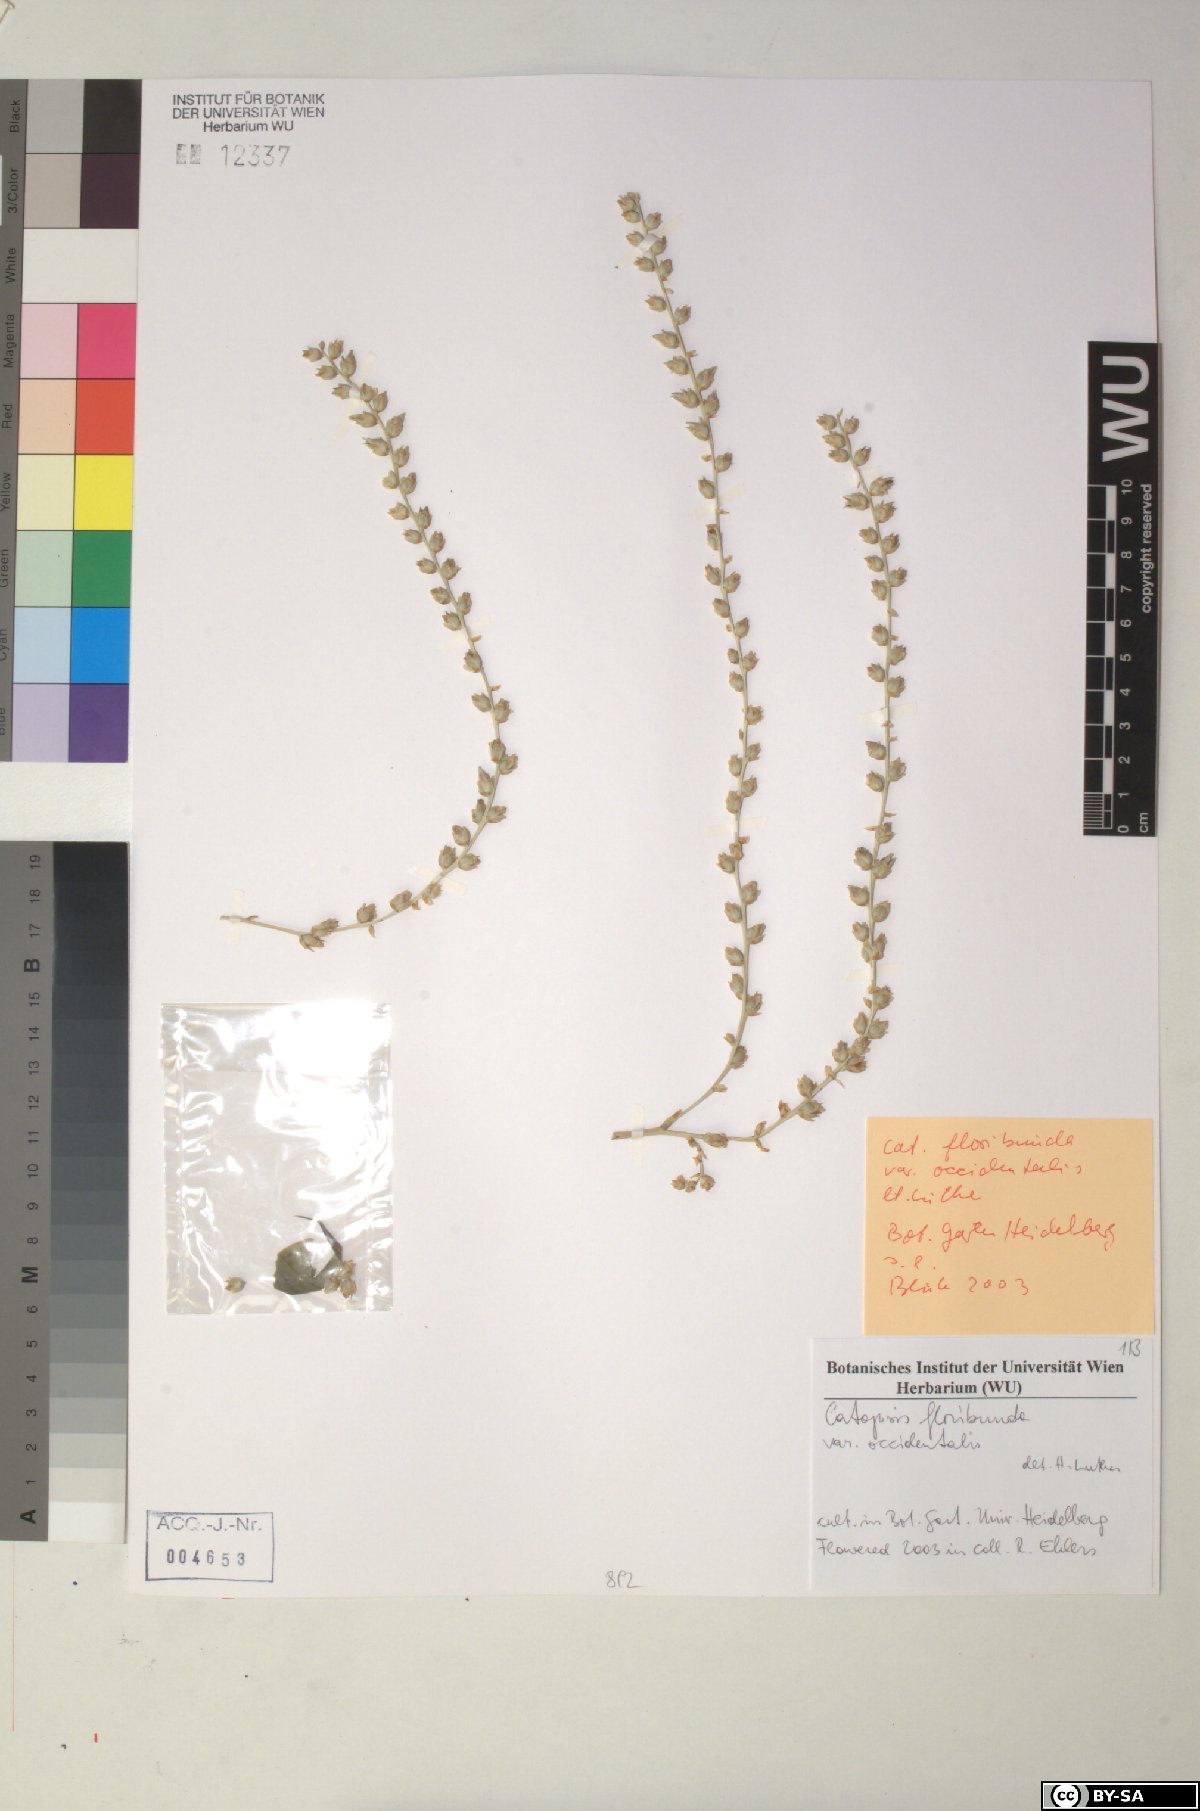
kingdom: Plantae
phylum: Tracheophyta
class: Liliopsida
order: Poales
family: Bromeliaceae
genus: Catopsis
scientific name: Catopsis floribunda
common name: Florida strap airplant
